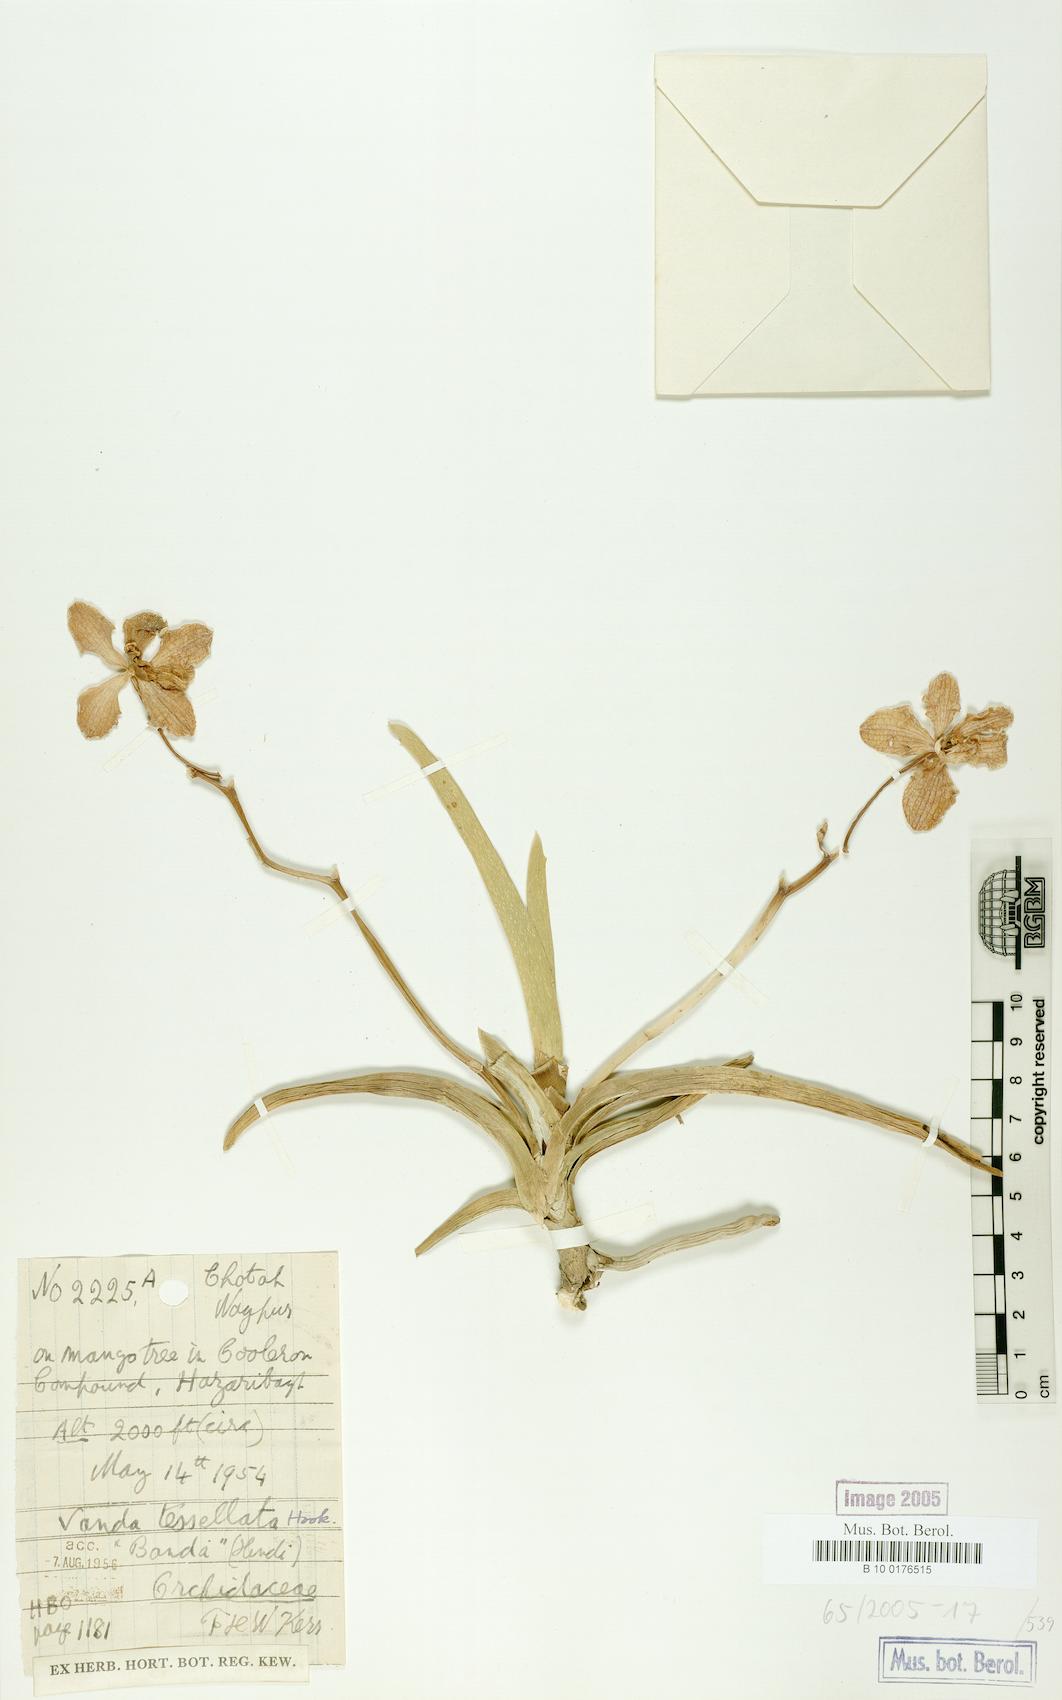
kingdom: Plantae
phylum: Tracheophyta
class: Liliopsida
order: Asparagales
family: Orchidaceae
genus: Vanda
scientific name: Vanda tessellata
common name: Grey orchid
